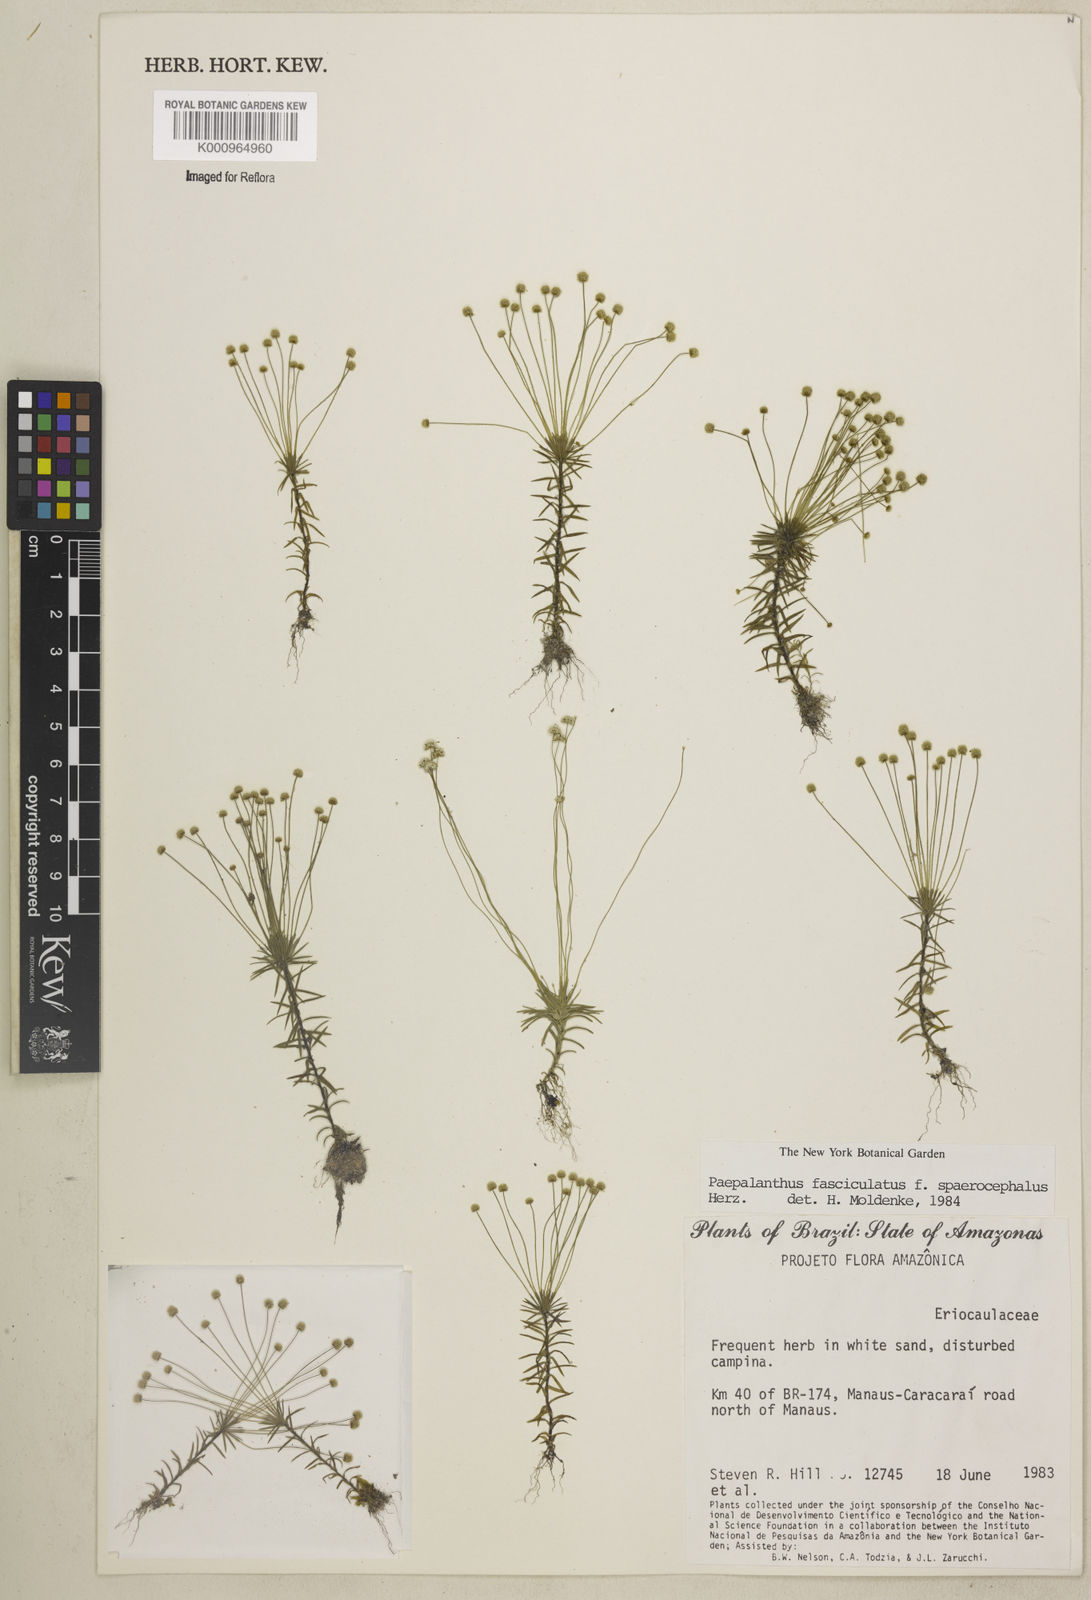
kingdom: Plantae
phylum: Tracheophyta
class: Liliopsida
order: Poales
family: Eriocaulaceae
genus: Paepalanthus
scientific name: Paepalanthus fasciculatus
